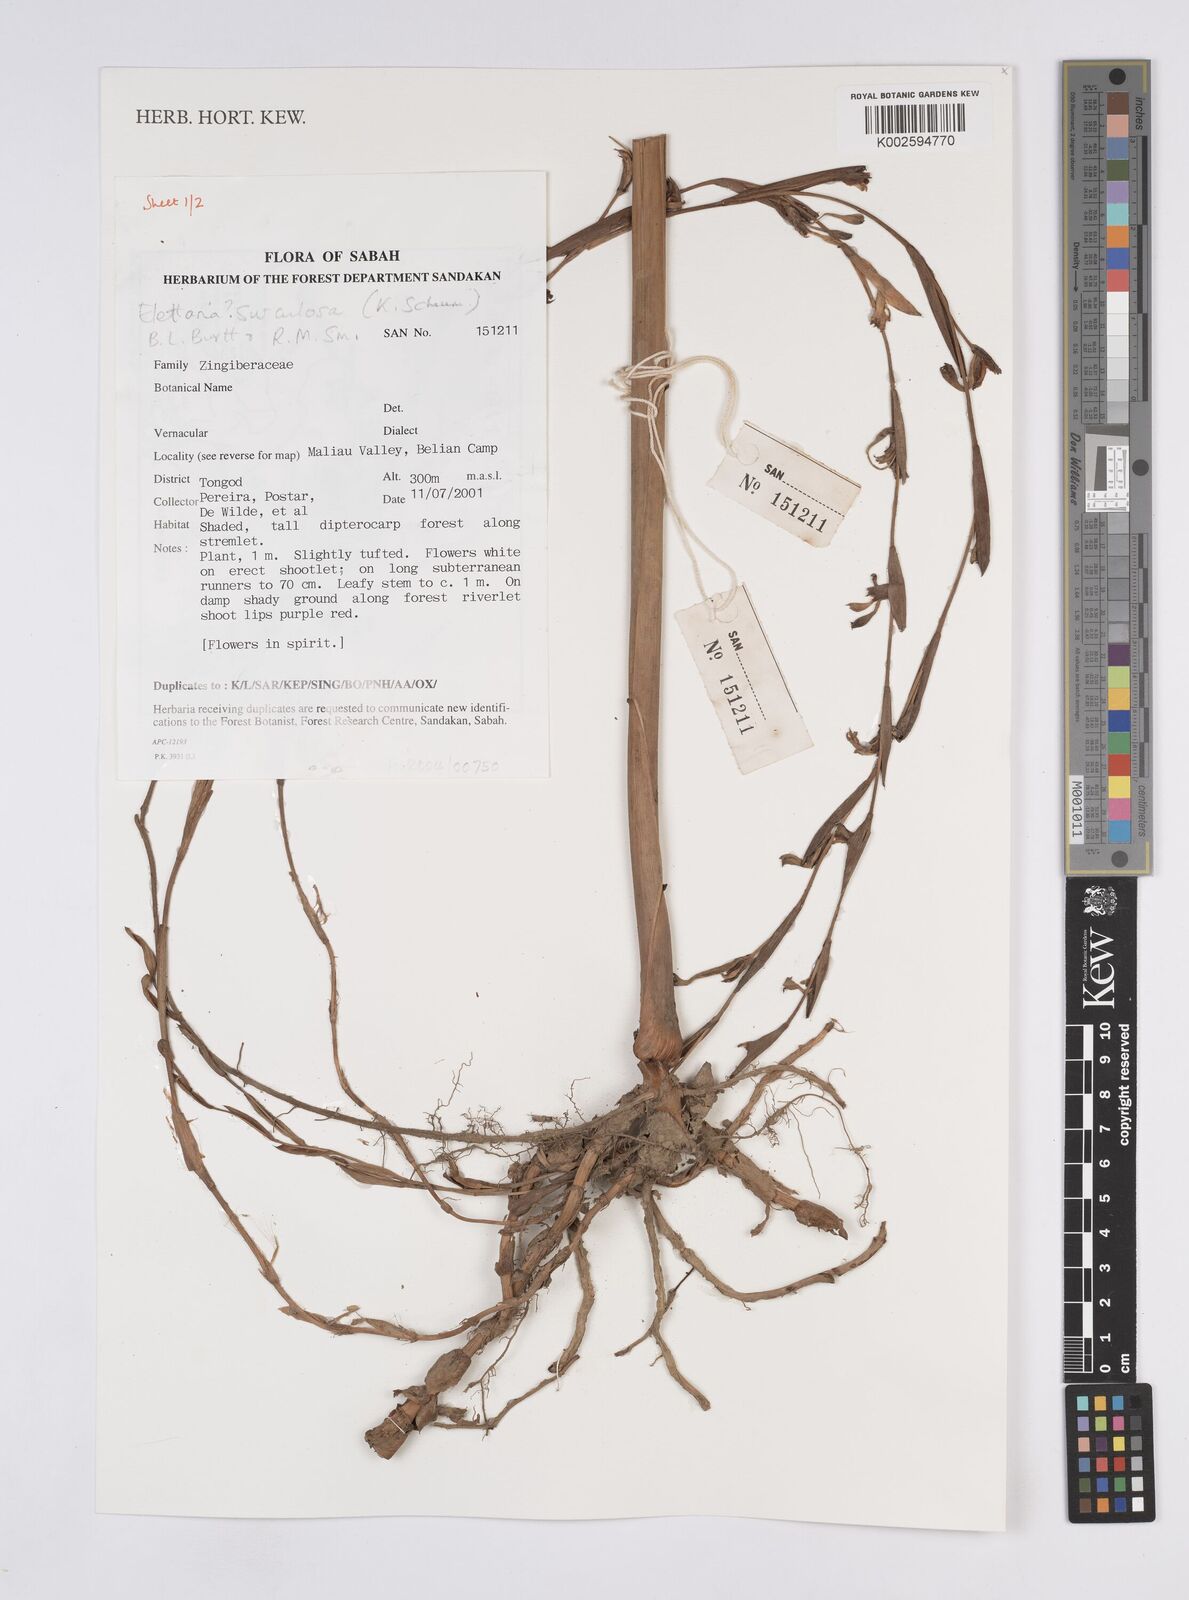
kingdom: Plantae
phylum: Tracheophyta
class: Liliopsida
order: Zingiberales
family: Zingiberaceae
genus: Sulettaria
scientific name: Sulettaria surculosa
